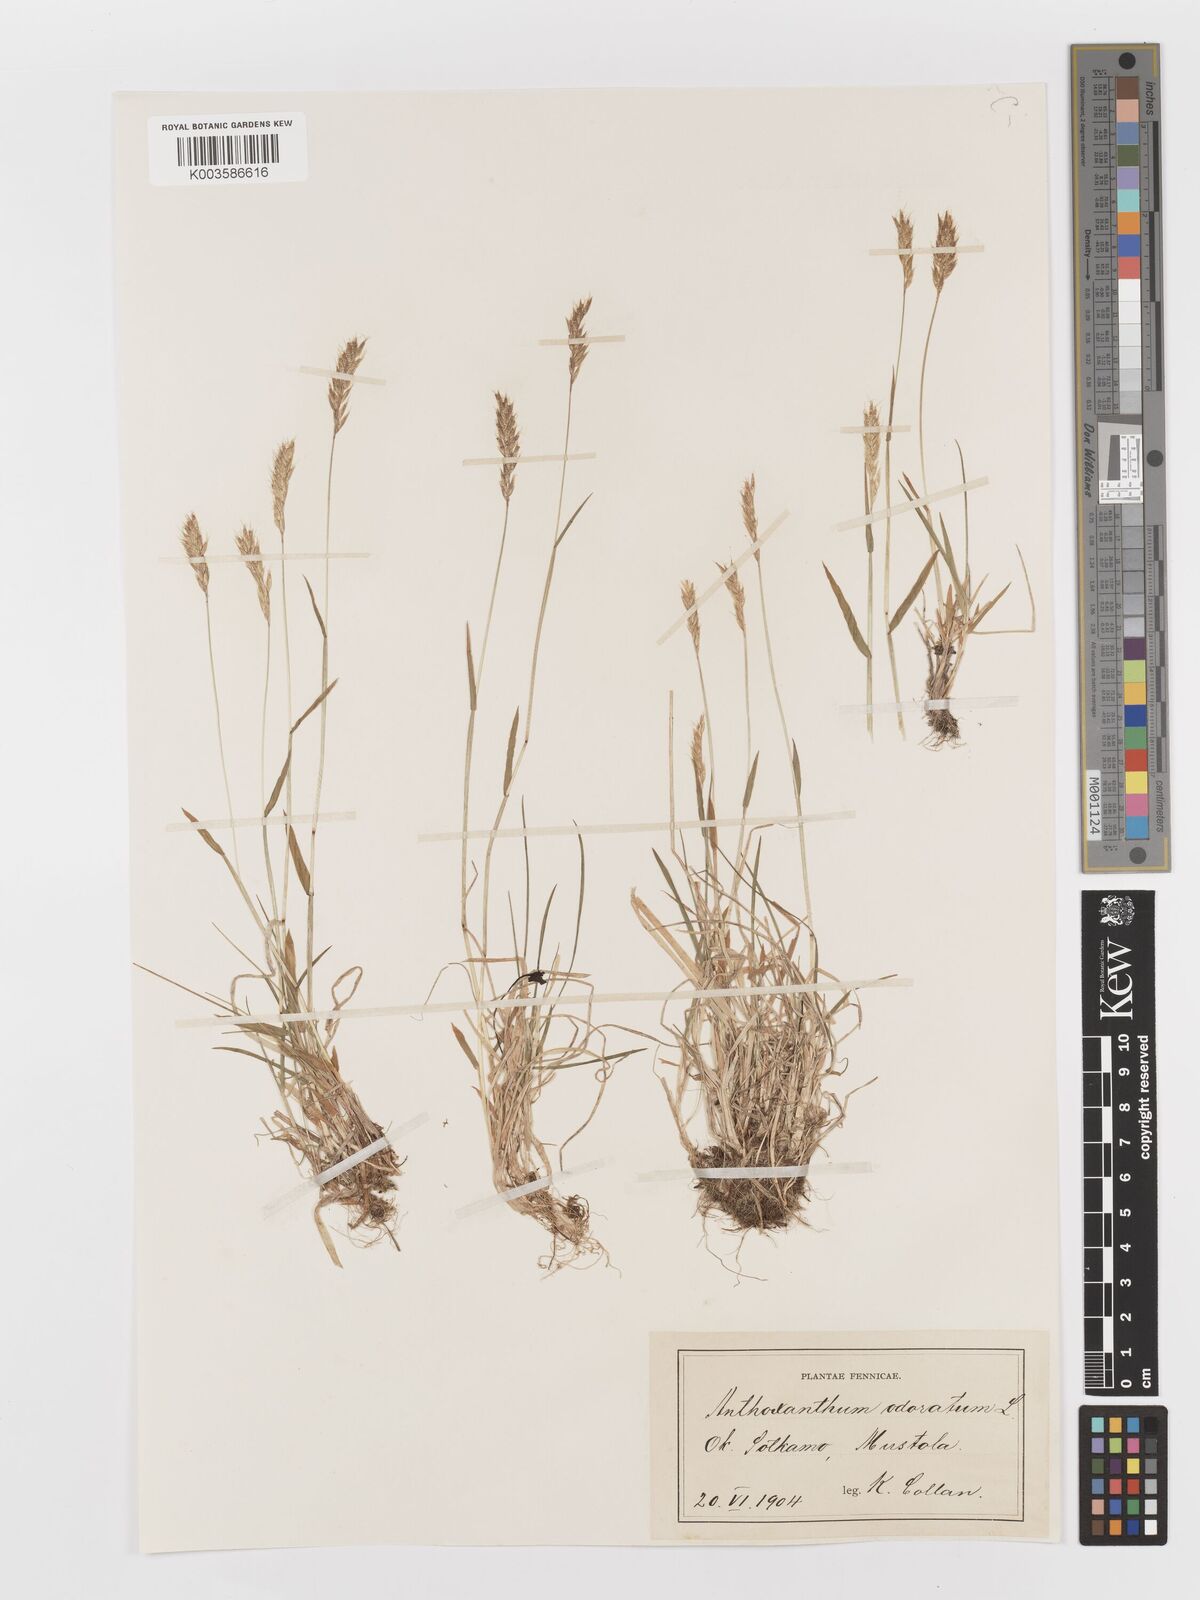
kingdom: Plantae
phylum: Tracheophyta
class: Liliopsida
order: Poales
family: Poaceae
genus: Anthoxanthum
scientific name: Anthoxanthum odoratum
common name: Sweet vernalgrass
